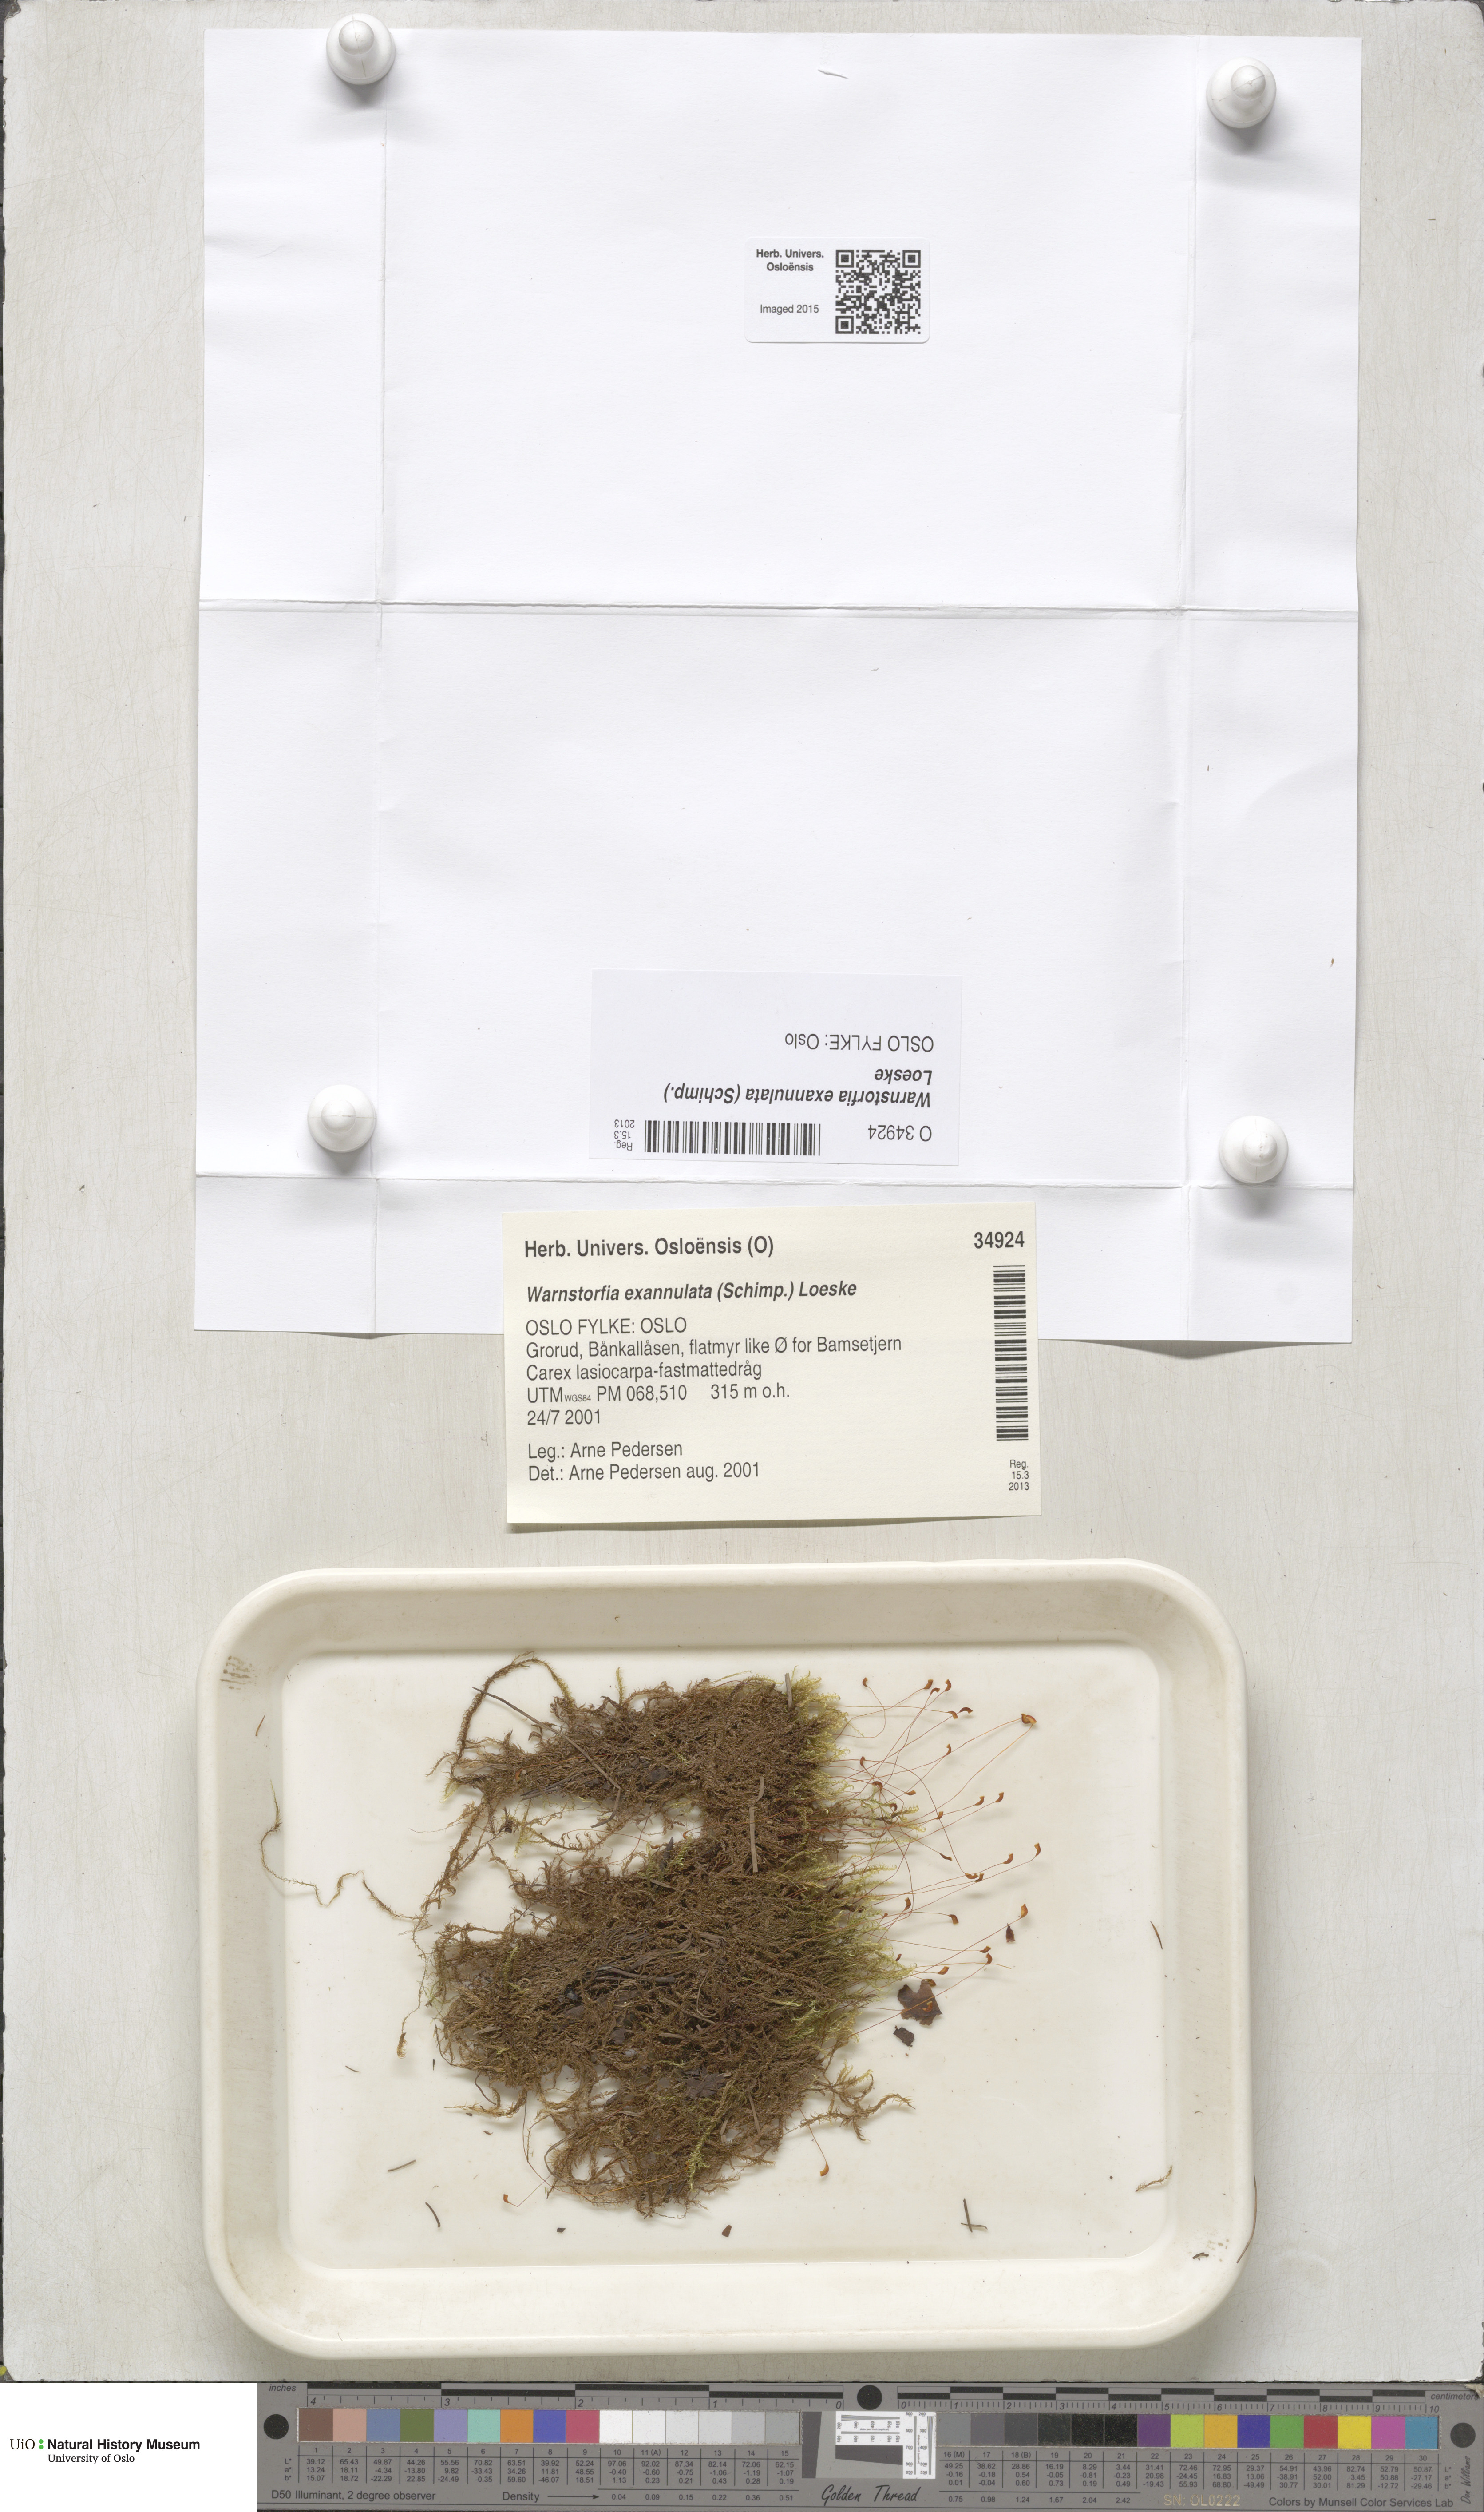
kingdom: Plantae
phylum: Bryophyta
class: Bryopsida
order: Hypnales
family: Calliergonaceae
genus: Sarmentypnum
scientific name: Sarmentypnum exannulatum
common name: Ringless spoon moss
